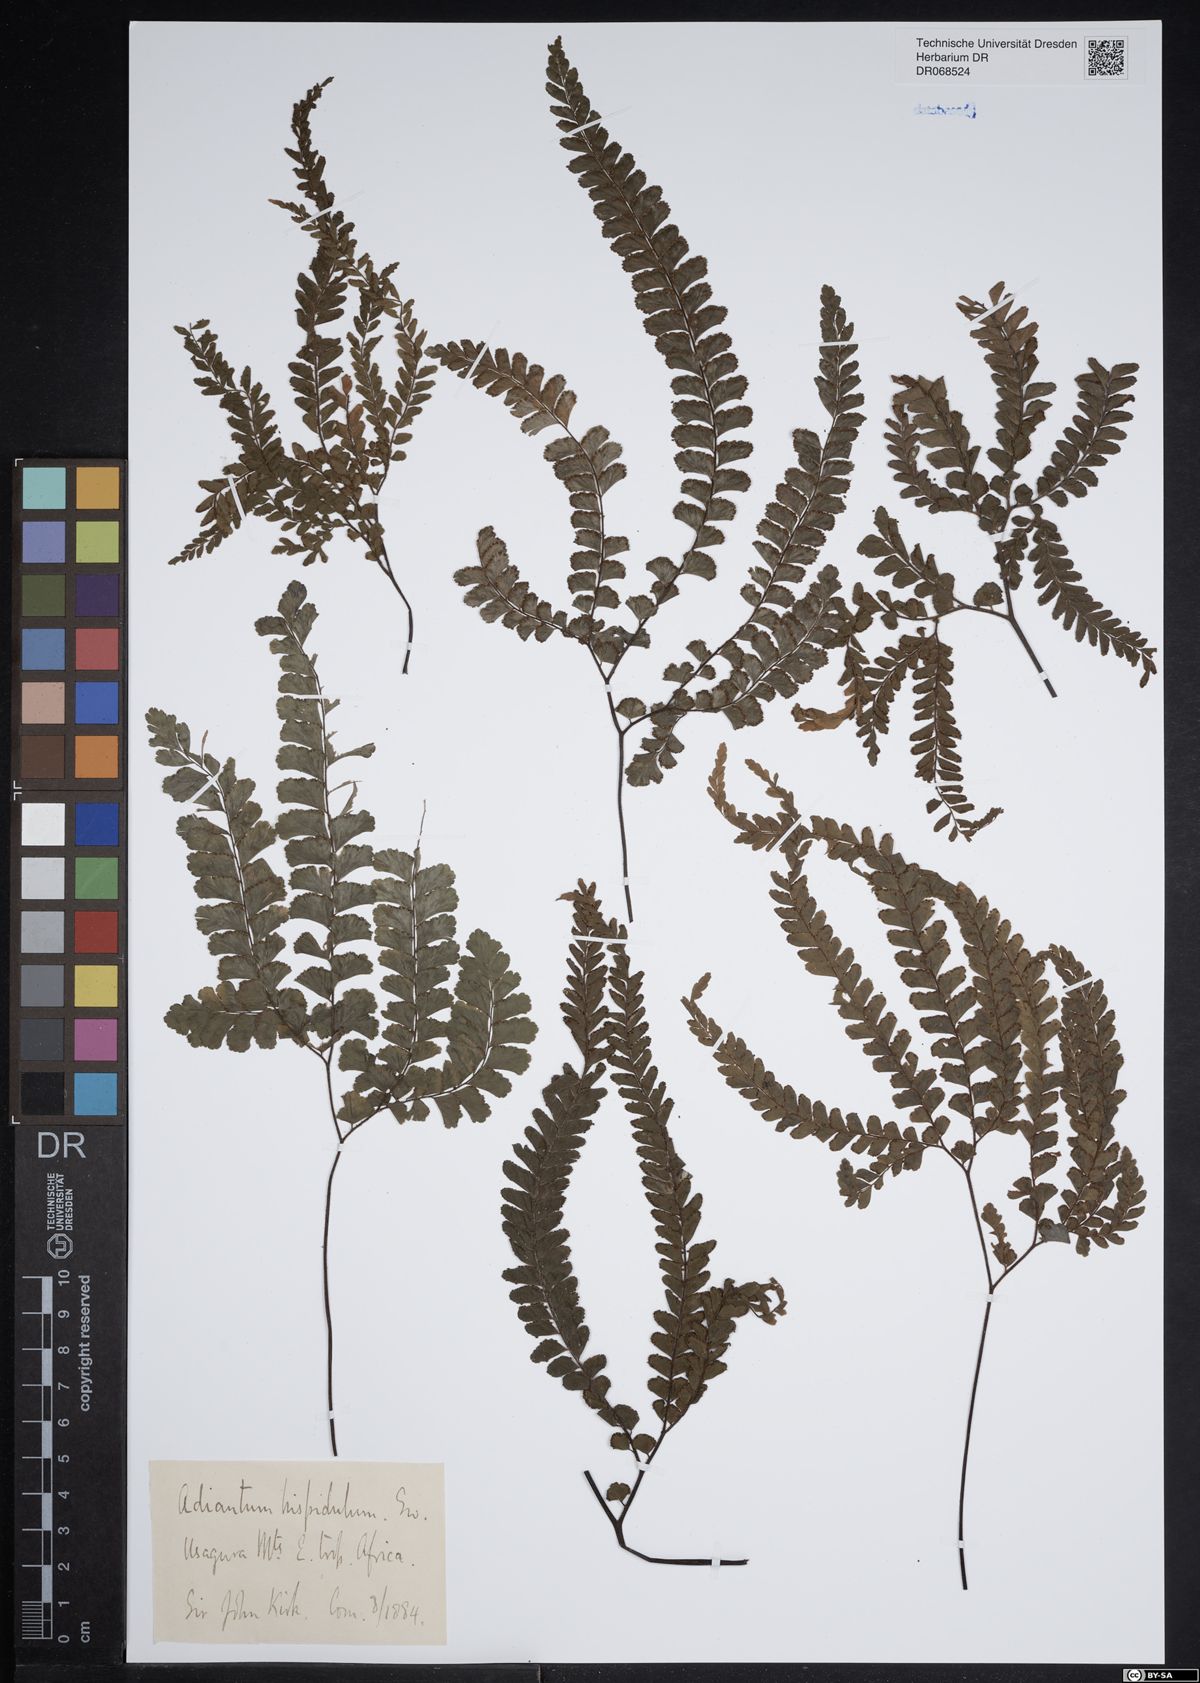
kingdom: Plantae
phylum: Tracheophyta
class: Polypodiopsida
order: Polypodiales
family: Pteridaceae
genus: Adiantum
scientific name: Adiantum hispidulum
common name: Rough maidenhair
